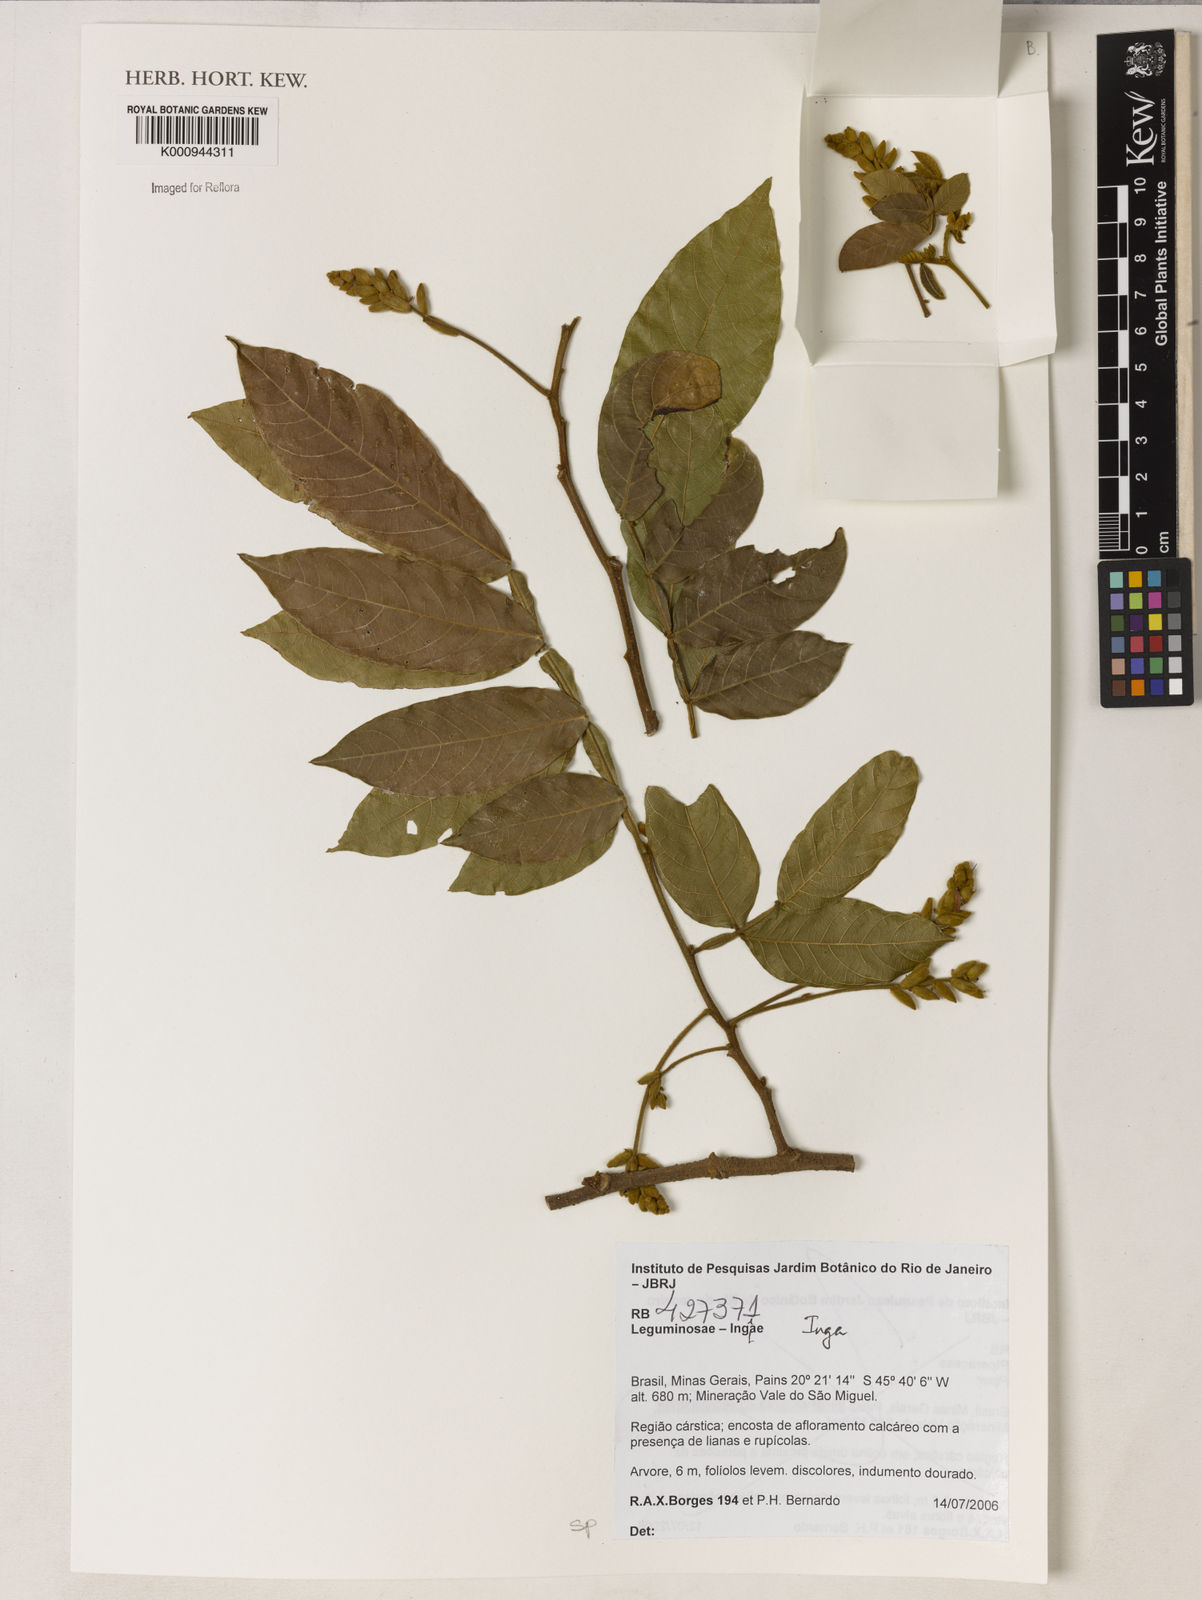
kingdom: Plantae
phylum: Tracheophyta
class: Magnoliopsida
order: Fabales
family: Fabaceae
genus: Inga
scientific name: Inga
